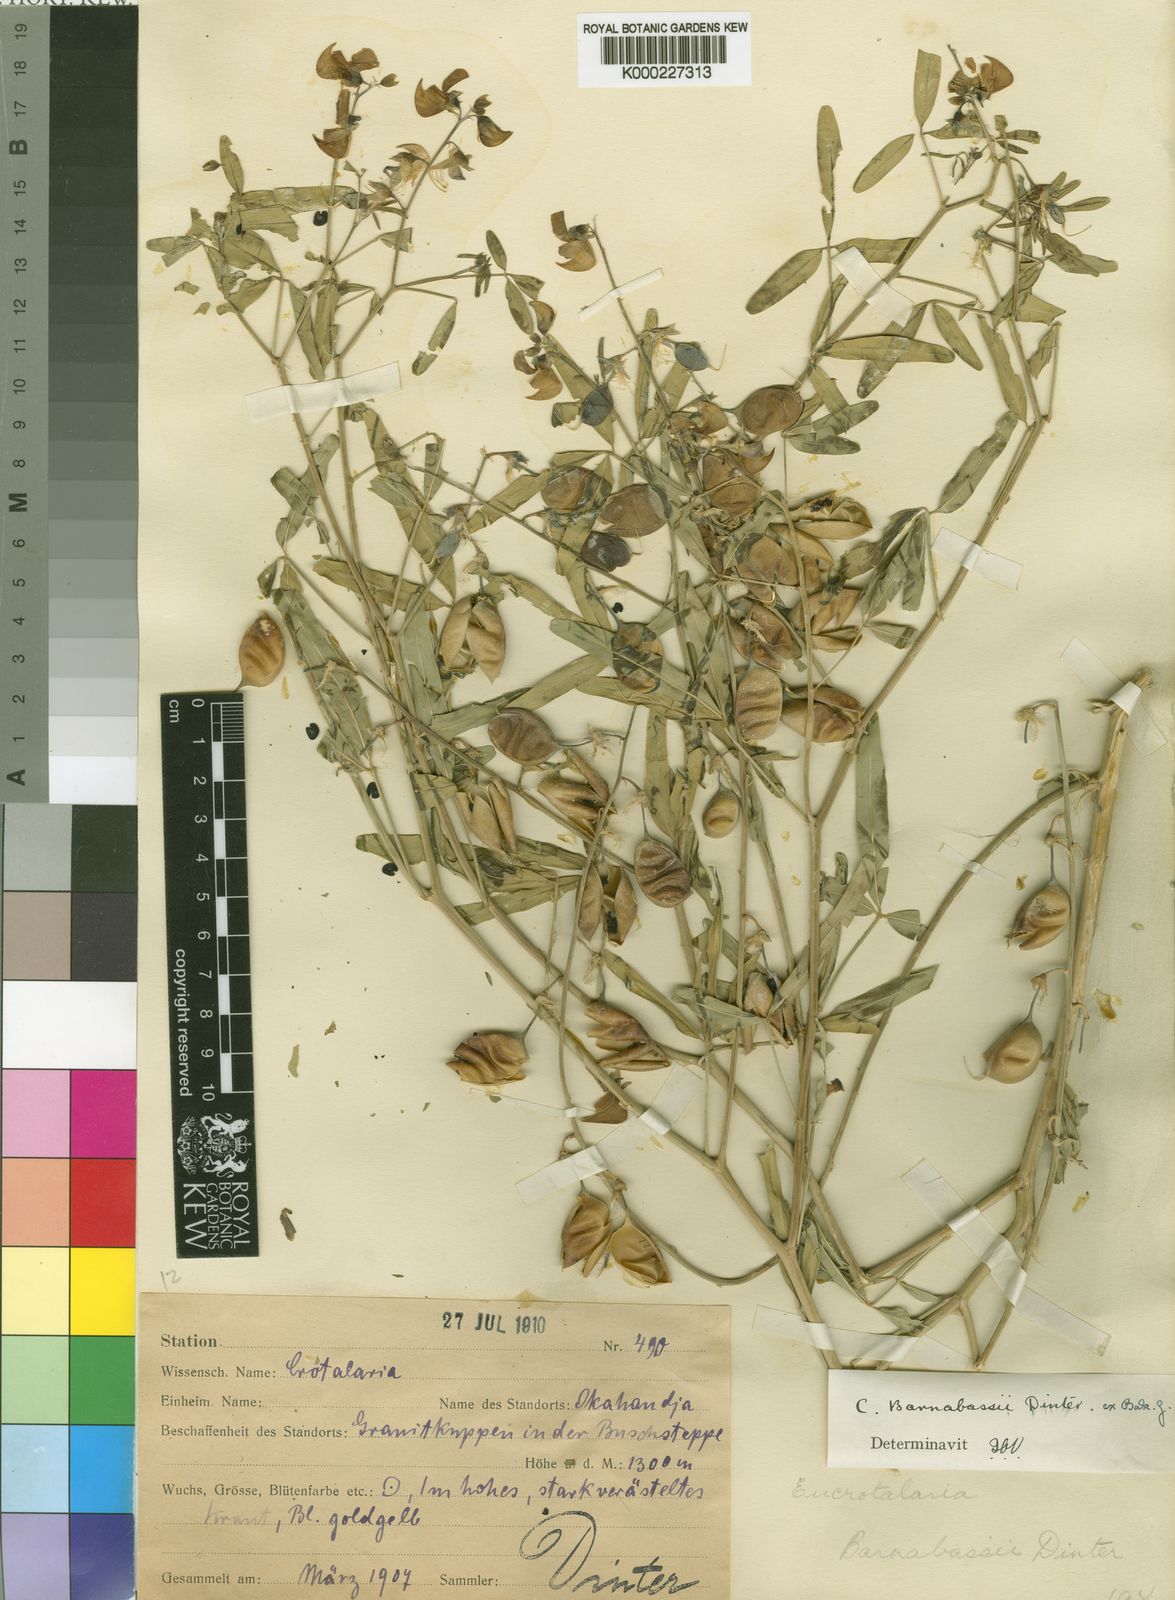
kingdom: Plantae
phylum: Tracheophyta
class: Magnoliopsida
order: Fabales
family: Fabaceae
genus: Crotalaria
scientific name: Crotalaria barnabassii
